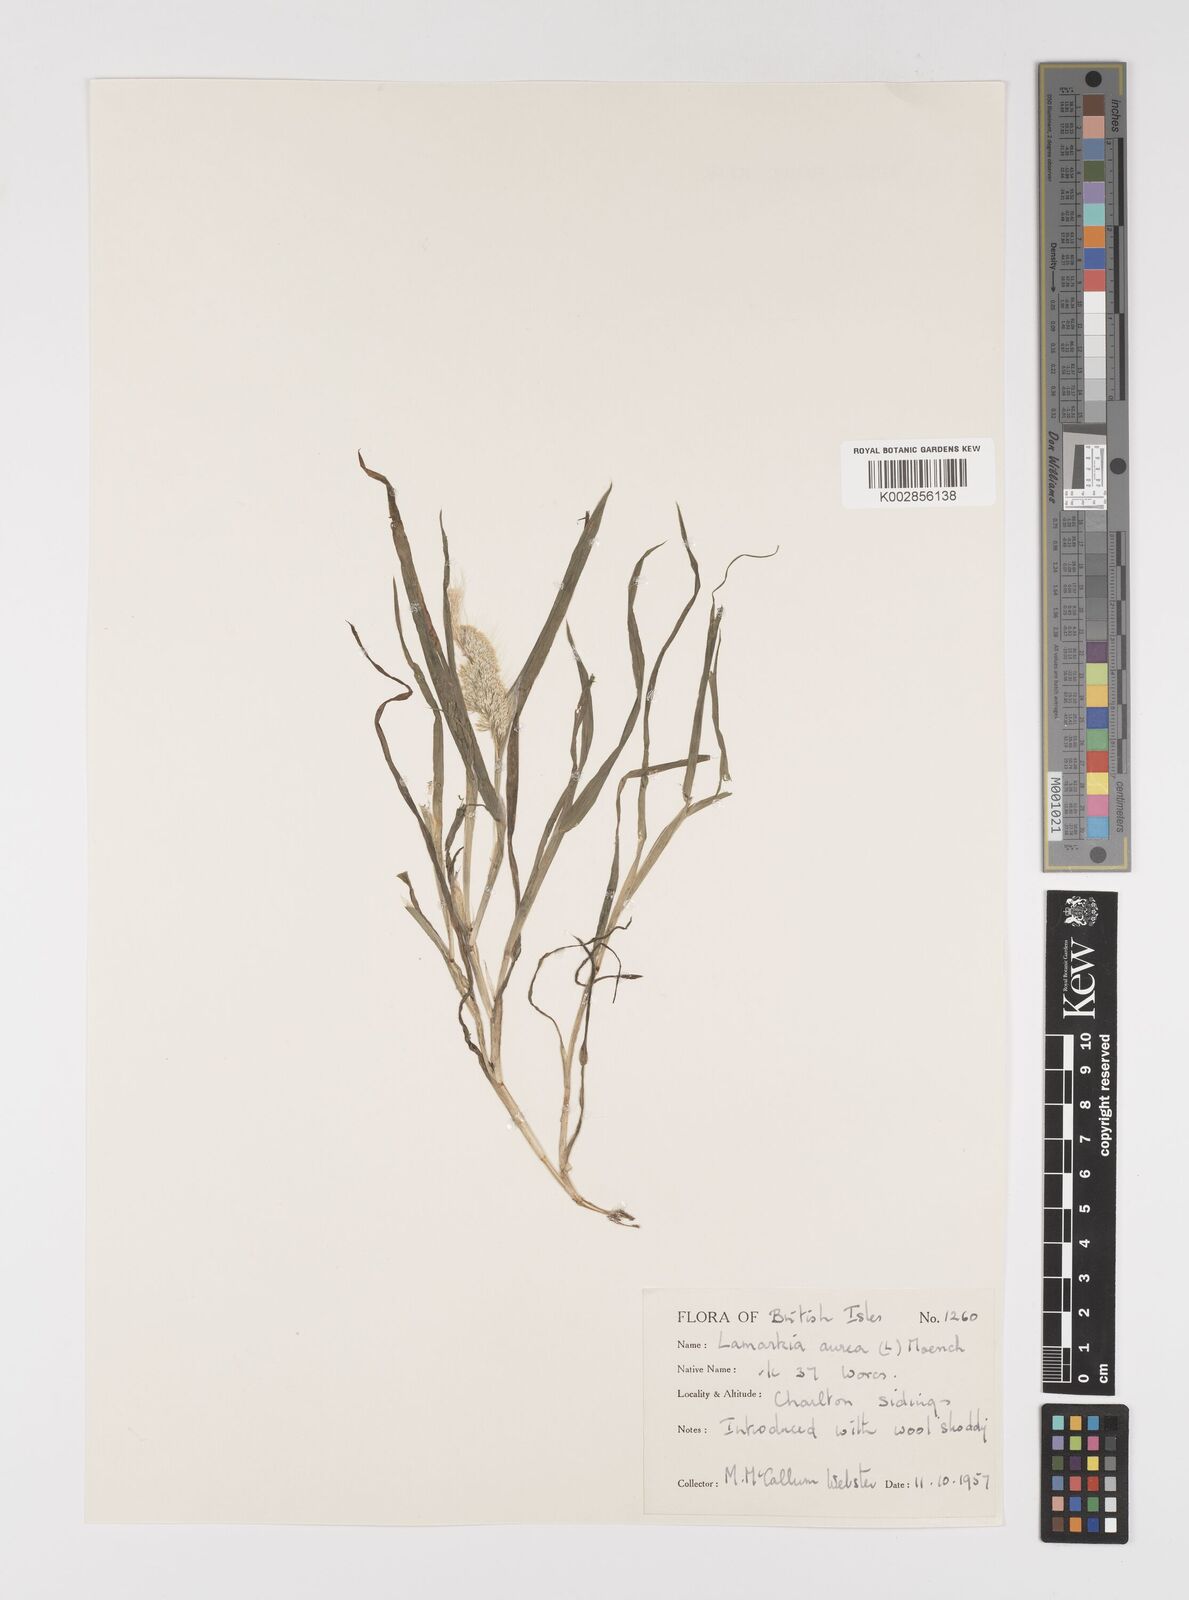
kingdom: Plantae
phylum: Tracheophyta
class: Liliopsida
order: Poales
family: Poaceae
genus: Lamarckia
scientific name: Lamarckia aurea
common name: Golden dog's-tail
